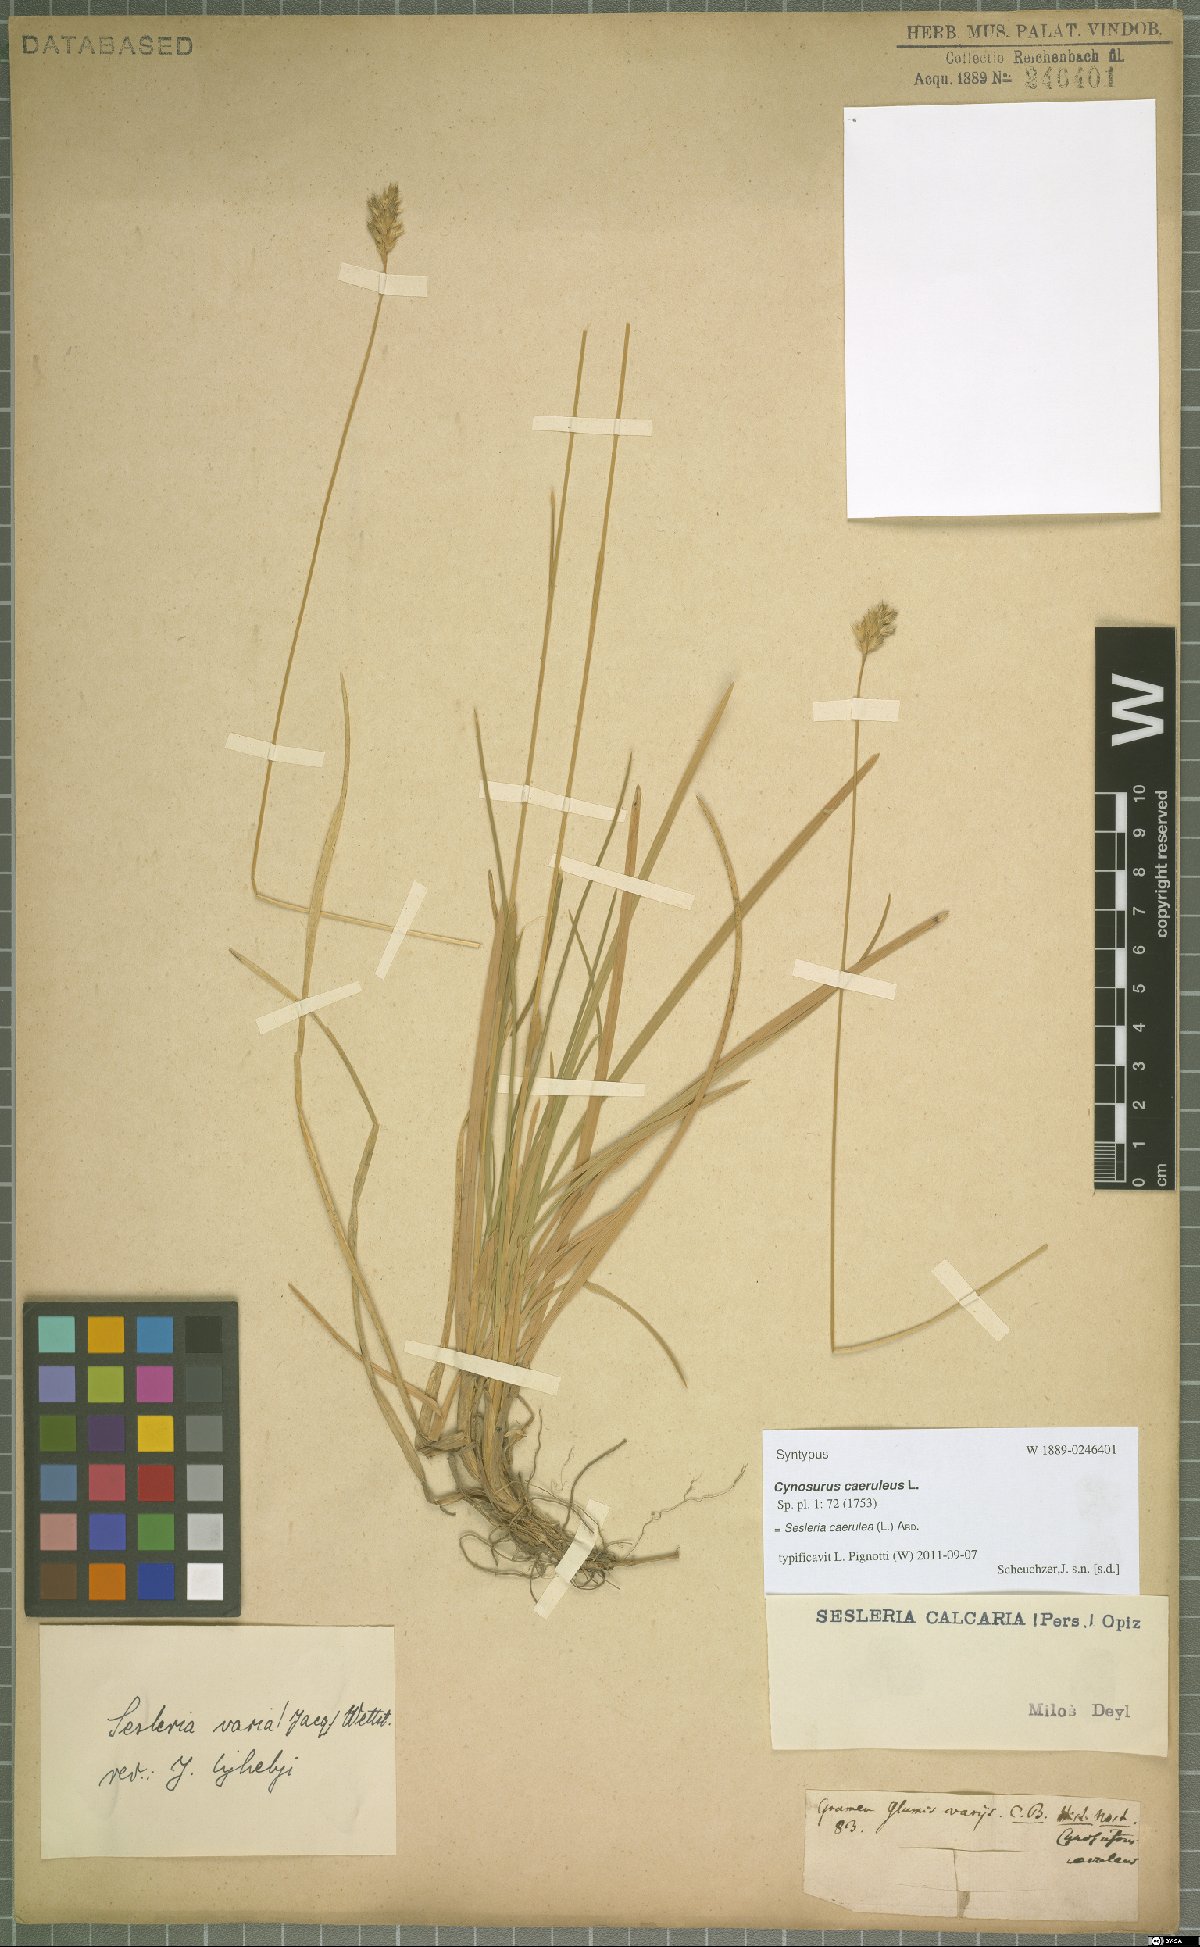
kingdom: Plantae
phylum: Tracheophyta
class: Liliopsida
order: Poales
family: Poaceae
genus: Sesleria
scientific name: Sesleria caerulea
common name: Blue moor-grass
